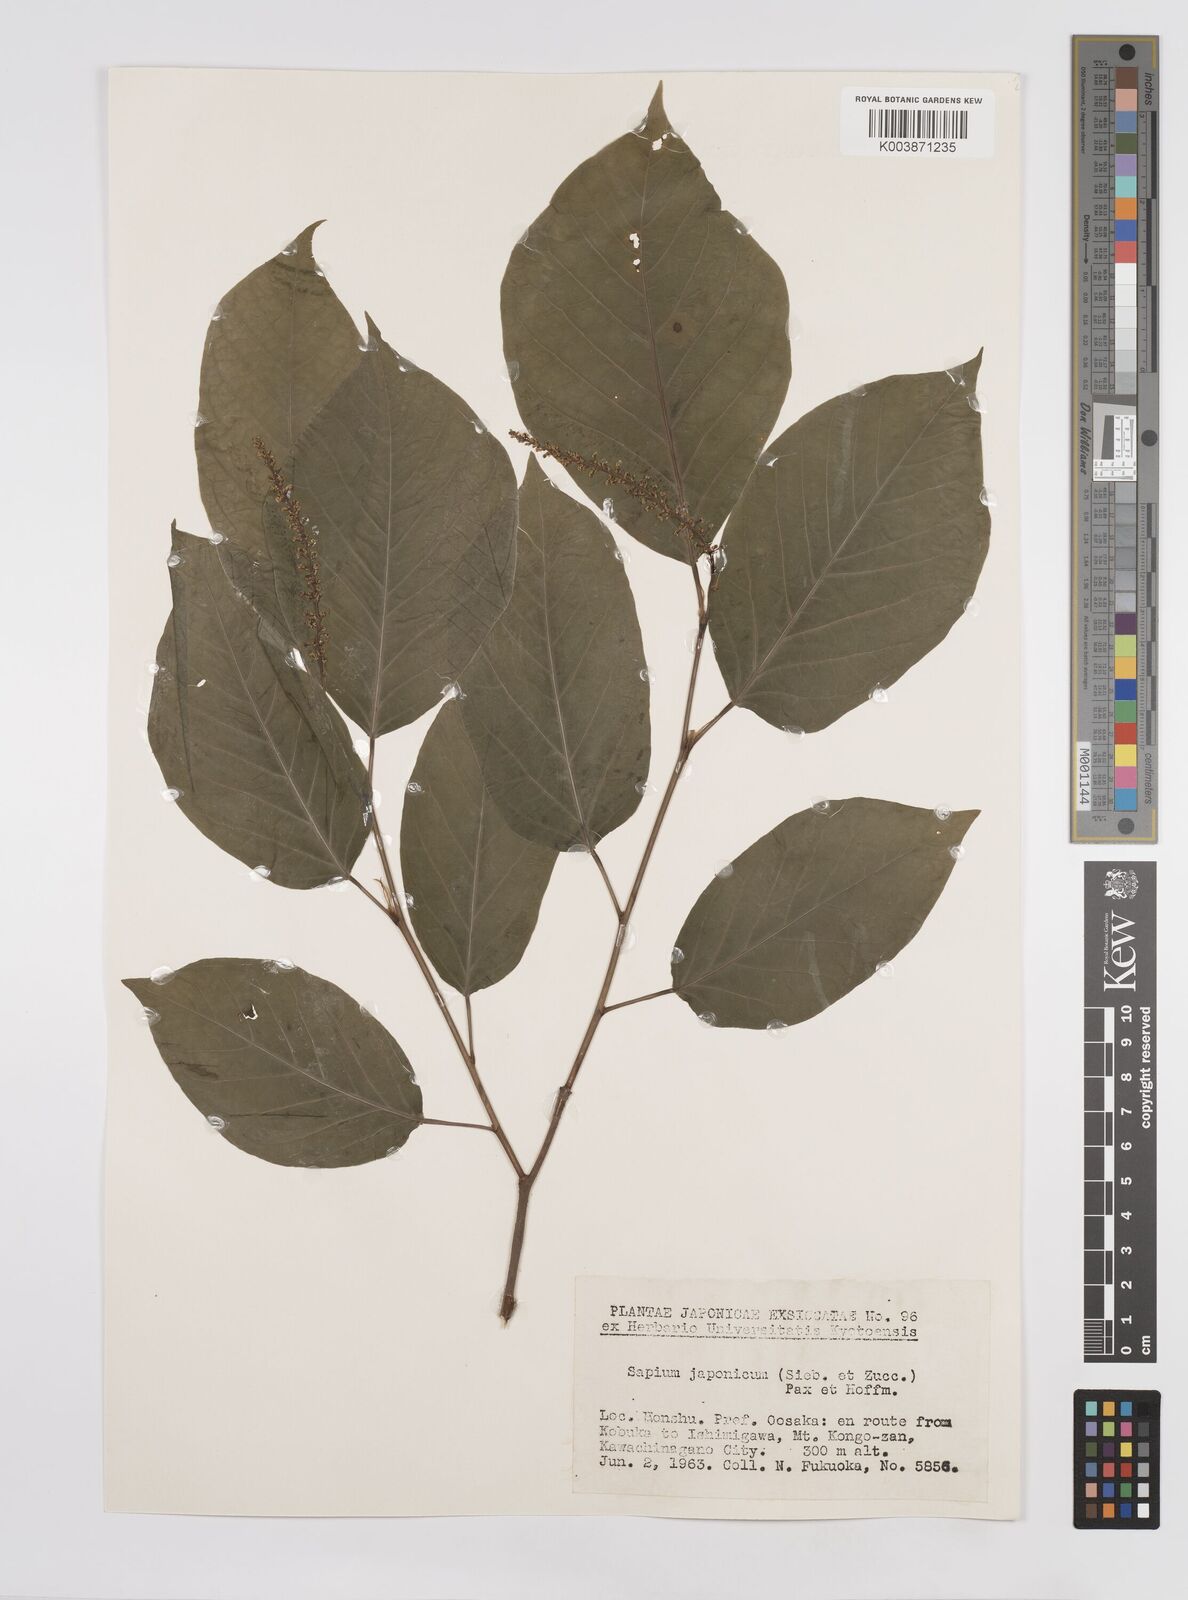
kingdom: Plantae
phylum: Tracheophyta
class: Magnoliopsida
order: Malpighiales
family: Euphorbiaceae
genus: Neoshirakia
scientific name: Neoshirakia japonica
